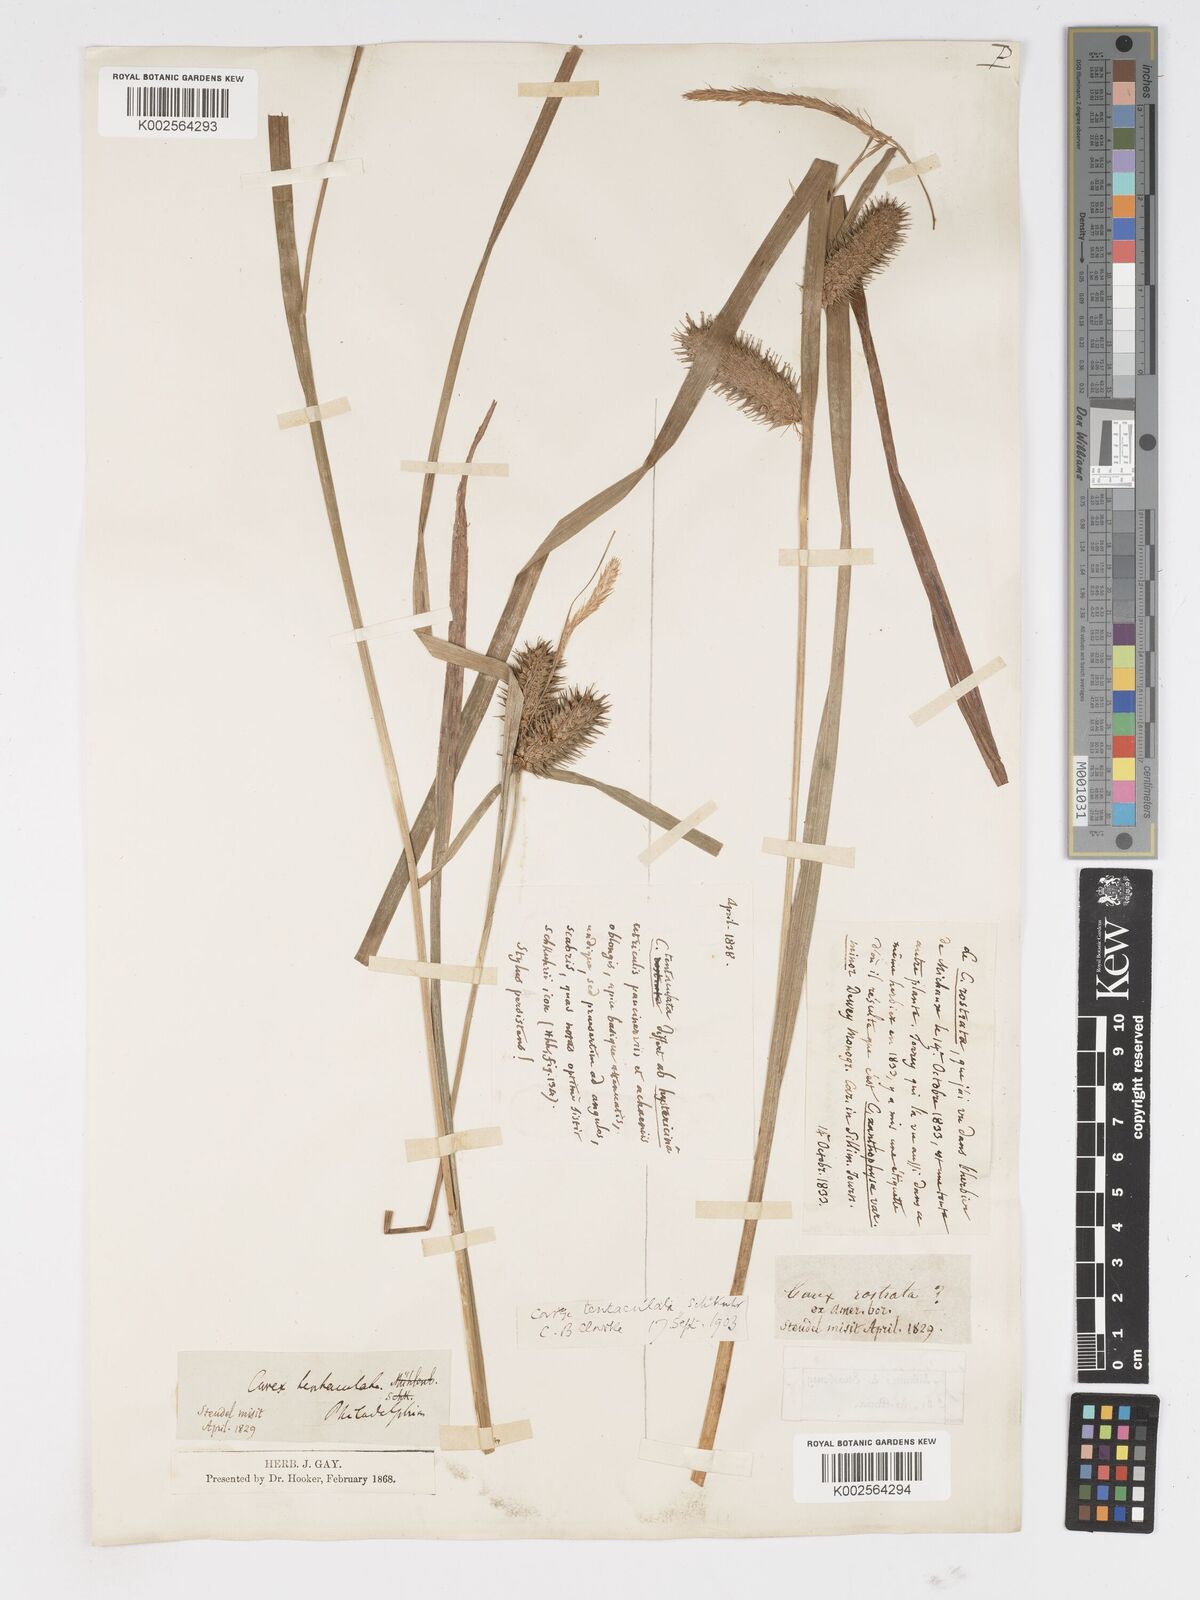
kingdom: Plantae
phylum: Tracheophyta
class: Liliopsida
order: Poales
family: Cyperaceae
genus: Carex
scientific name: Carex lurida
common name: Sallow sedge
